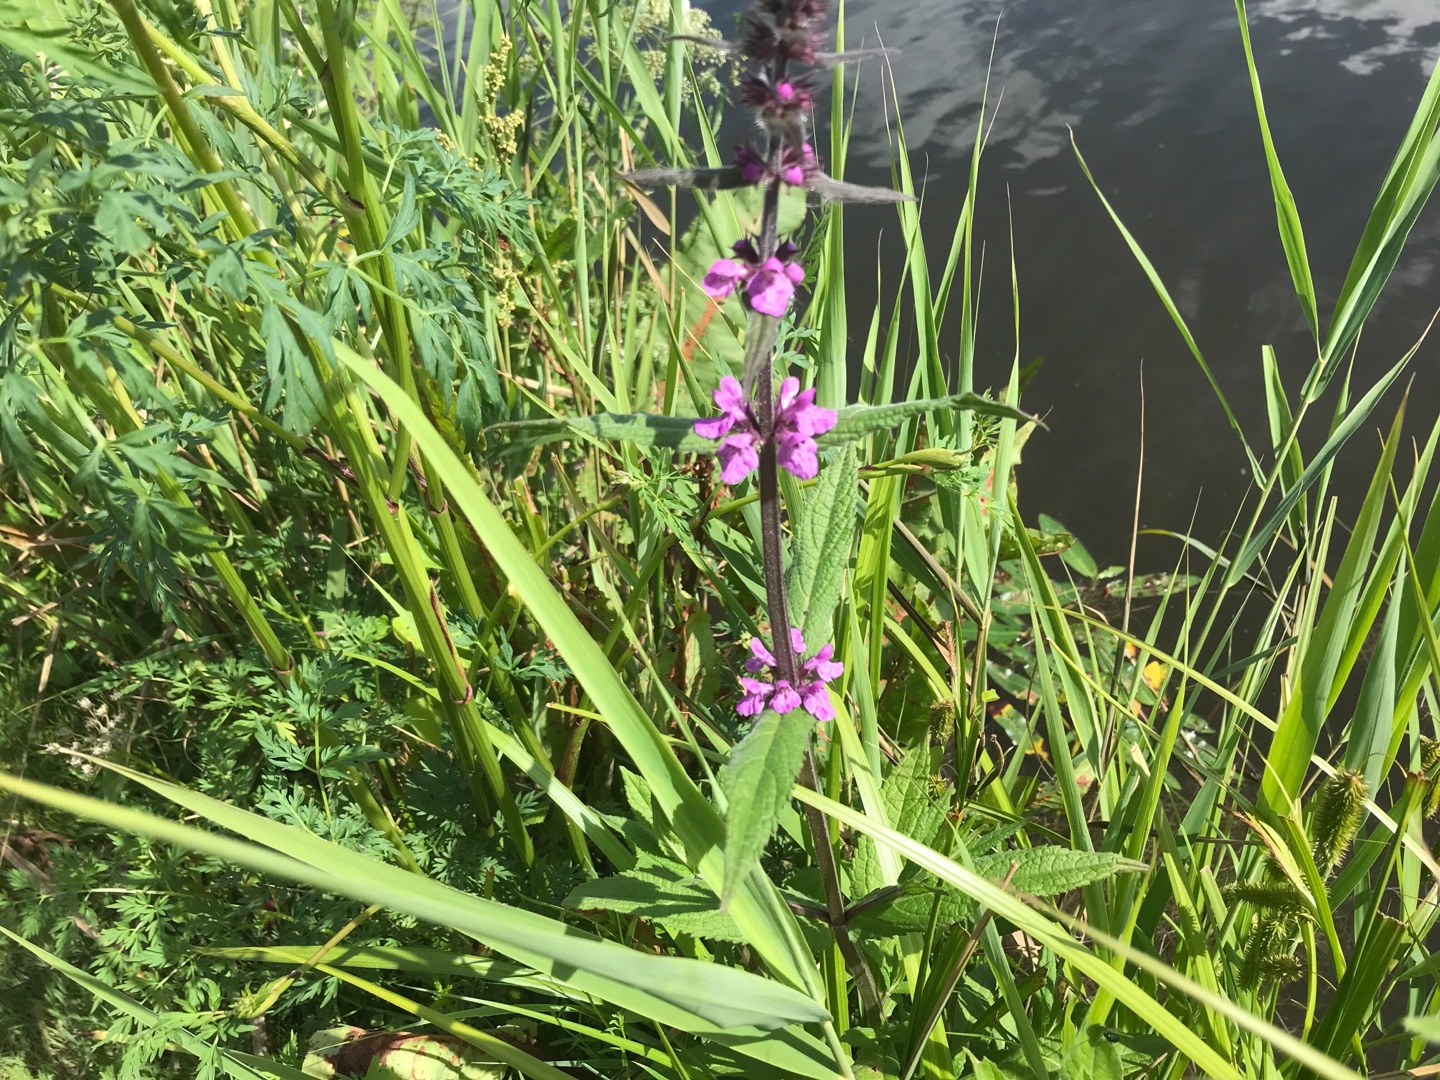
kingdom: Plantae
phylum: Tracheophyta
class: Magnoliopsida
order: Lamiales
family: Lamiaceae
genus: Stachys
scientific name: Stachys palustris
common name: Kær-galtetand
